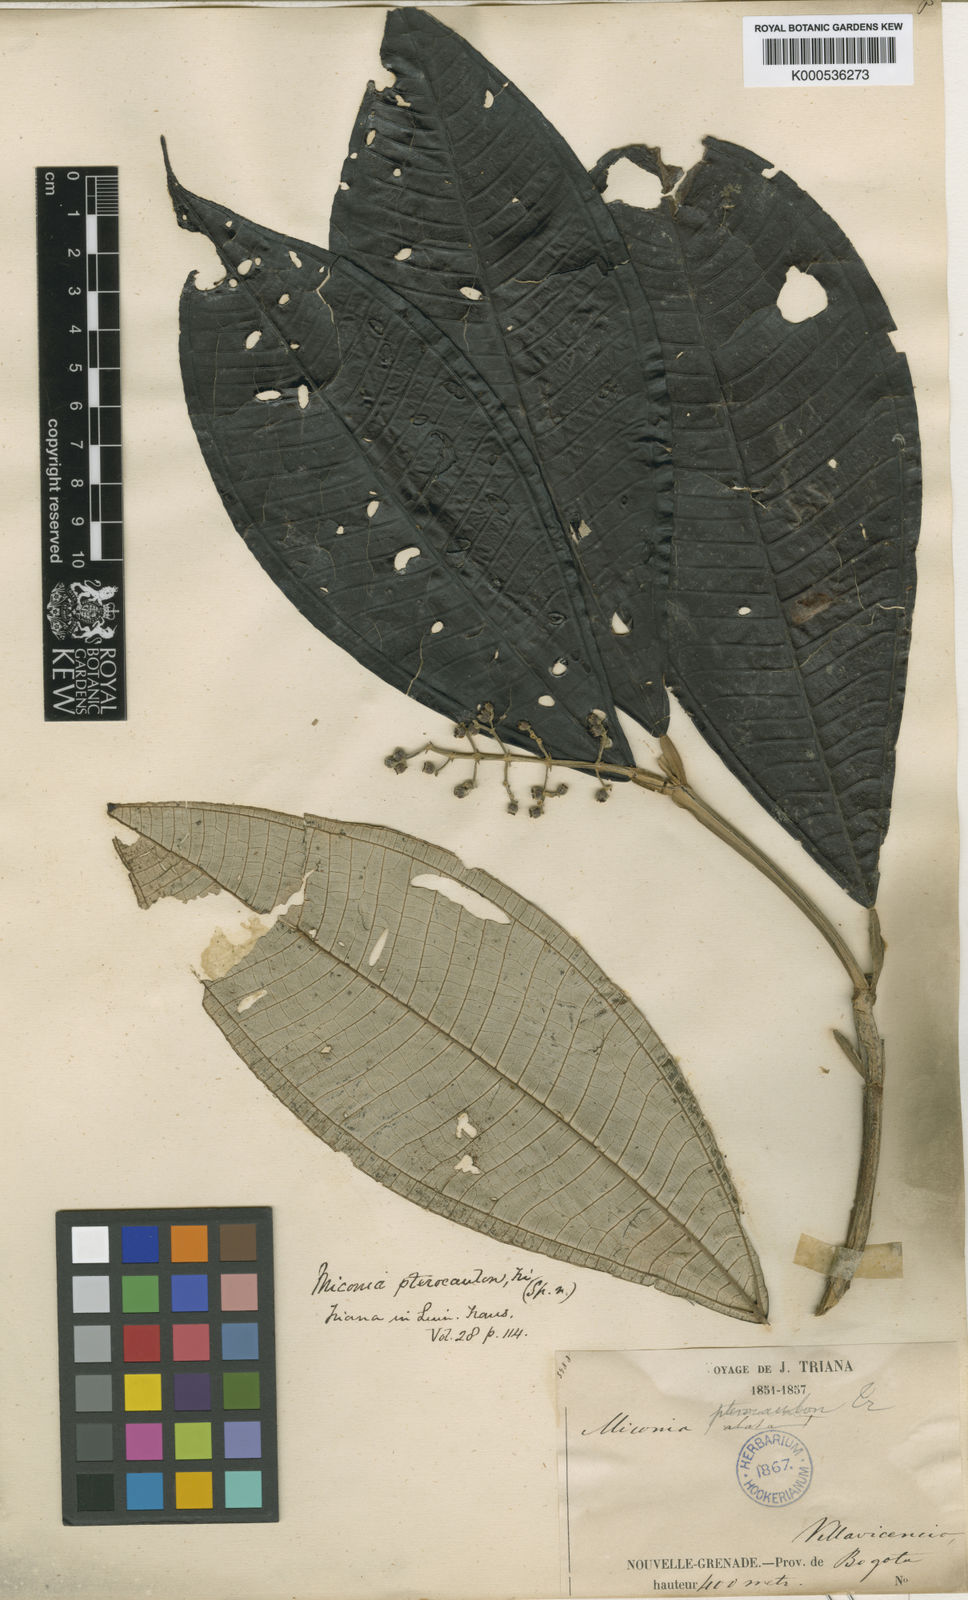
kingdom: Plantae
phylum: Tracheophyta
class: Magnoliopsida
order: Myrtales
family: Melastomataceae
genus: Miconia
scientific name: Miconia pterocaulon
